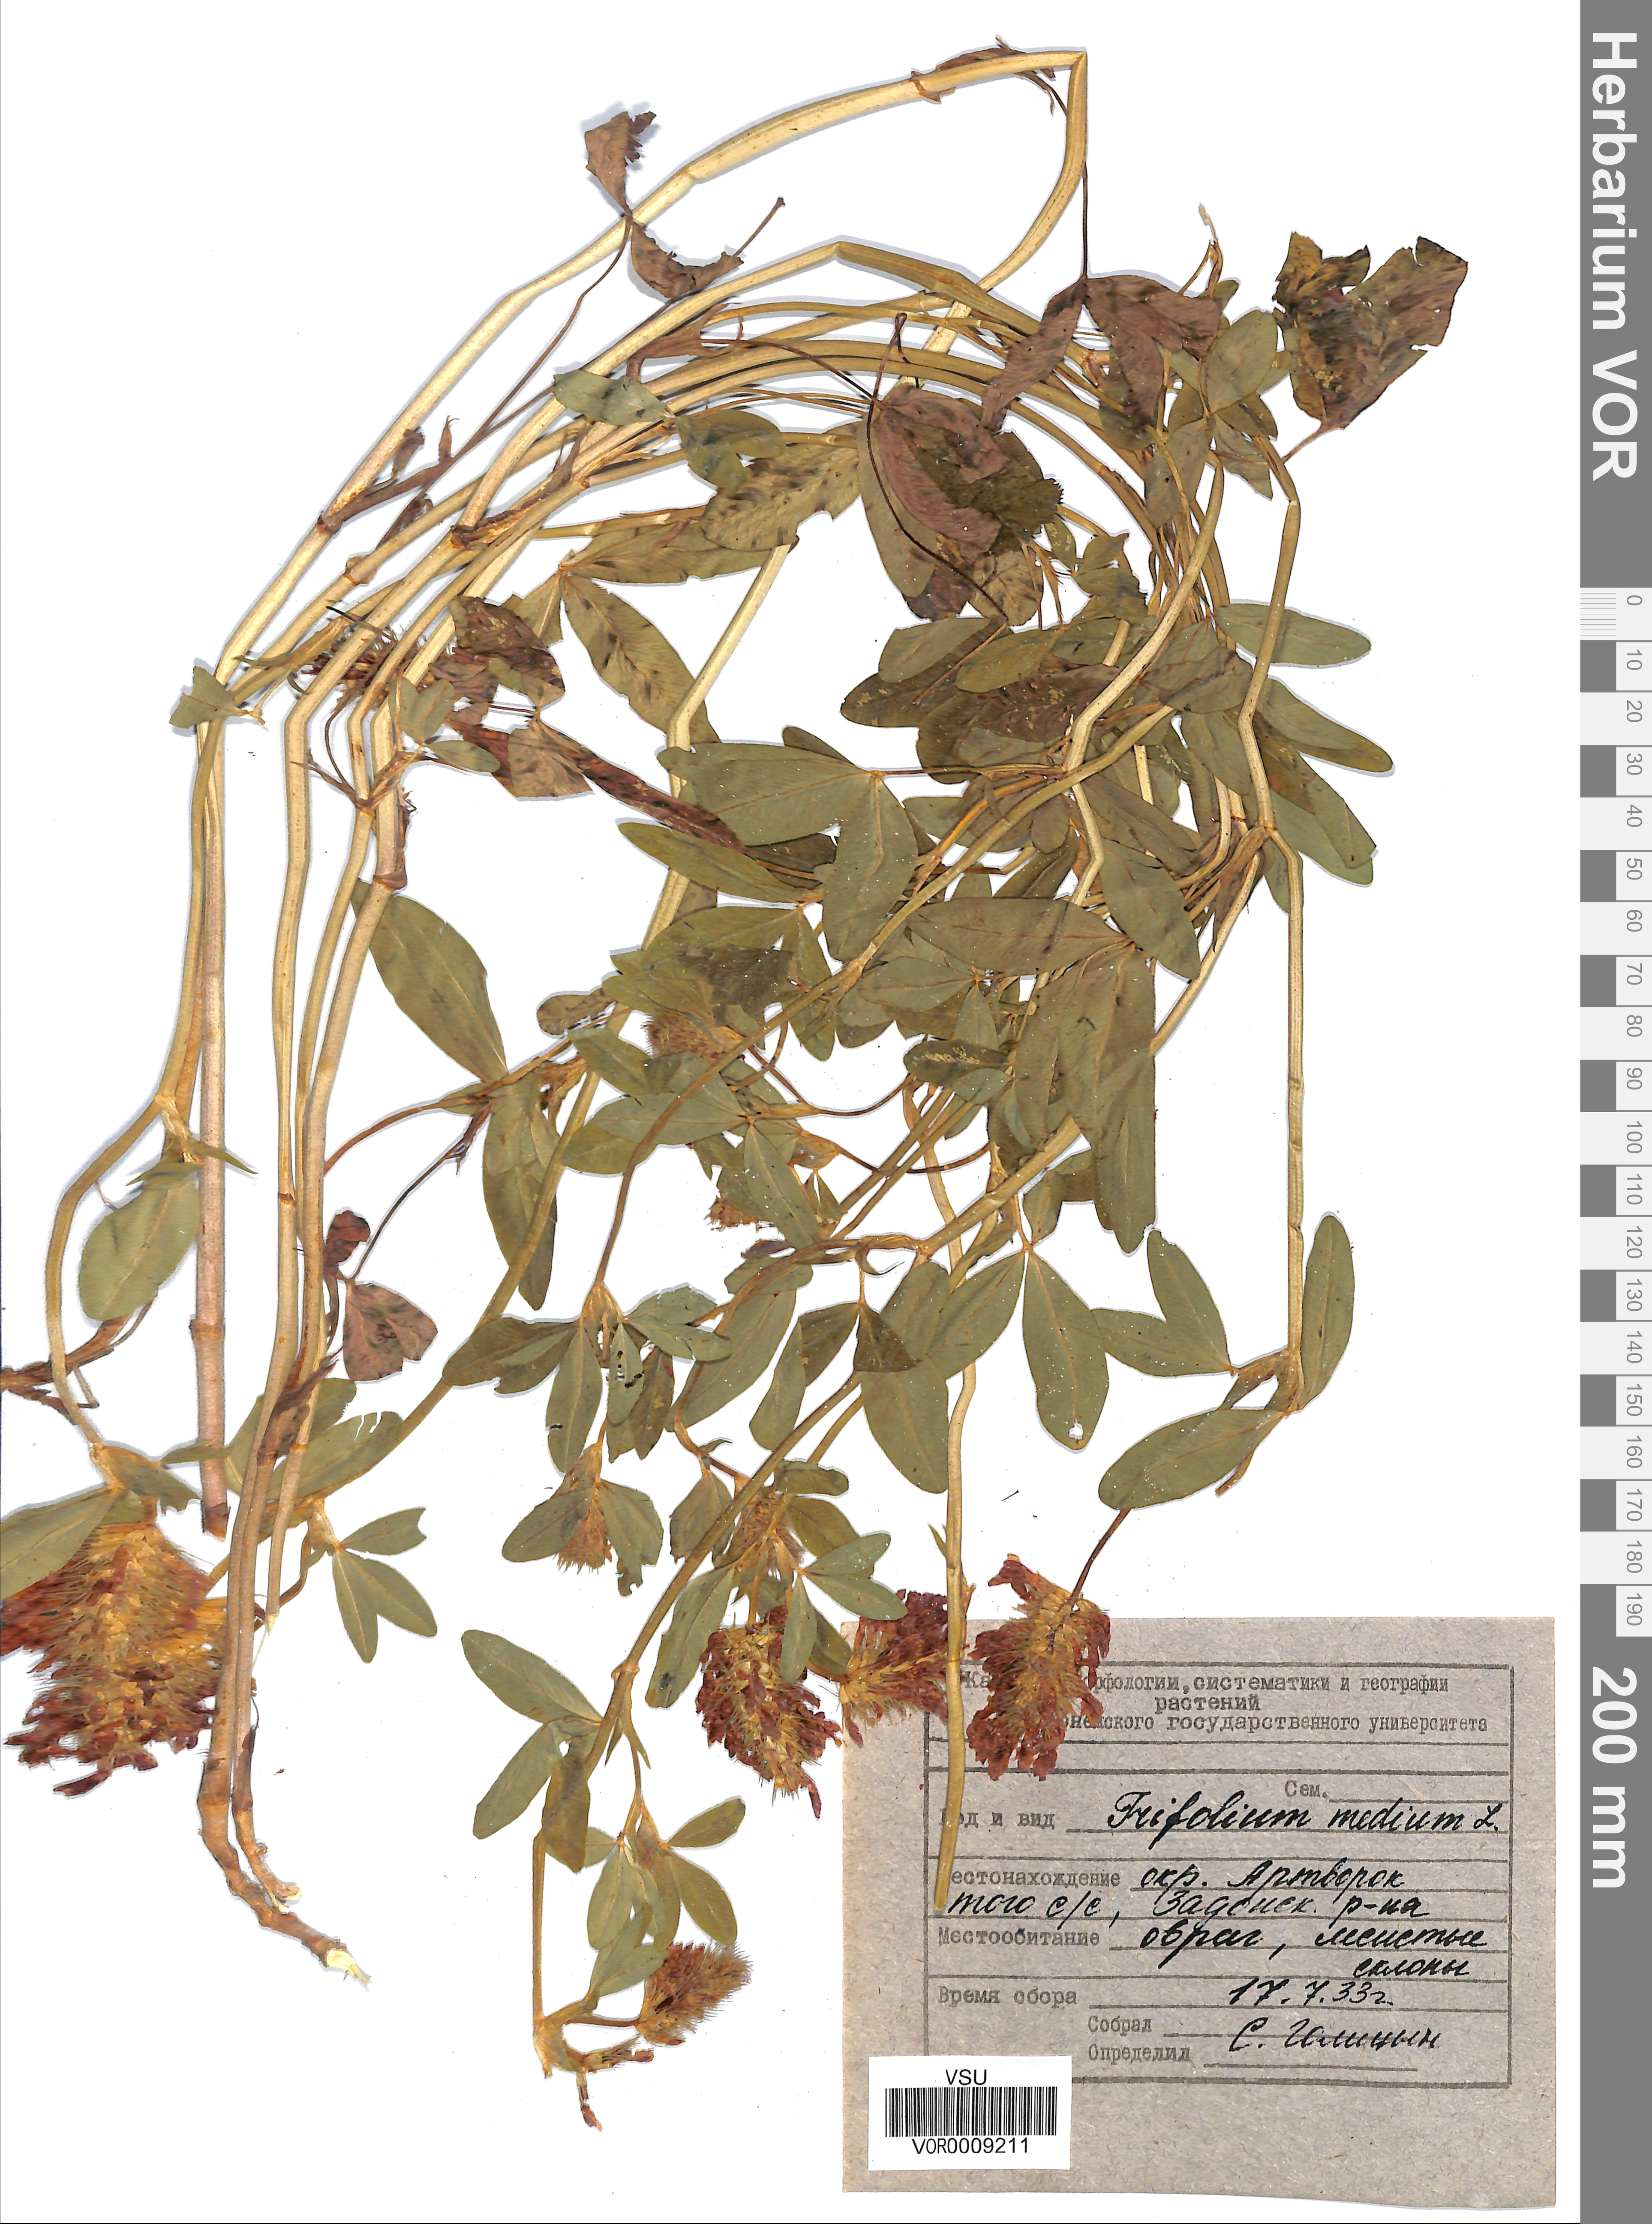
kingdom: Plantae
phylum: Tracheophyta
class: Magnoliopsida
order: Fabales
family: Fabaceae
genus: Trifolium
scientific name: Trifolium medium
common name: Zigzag clover
